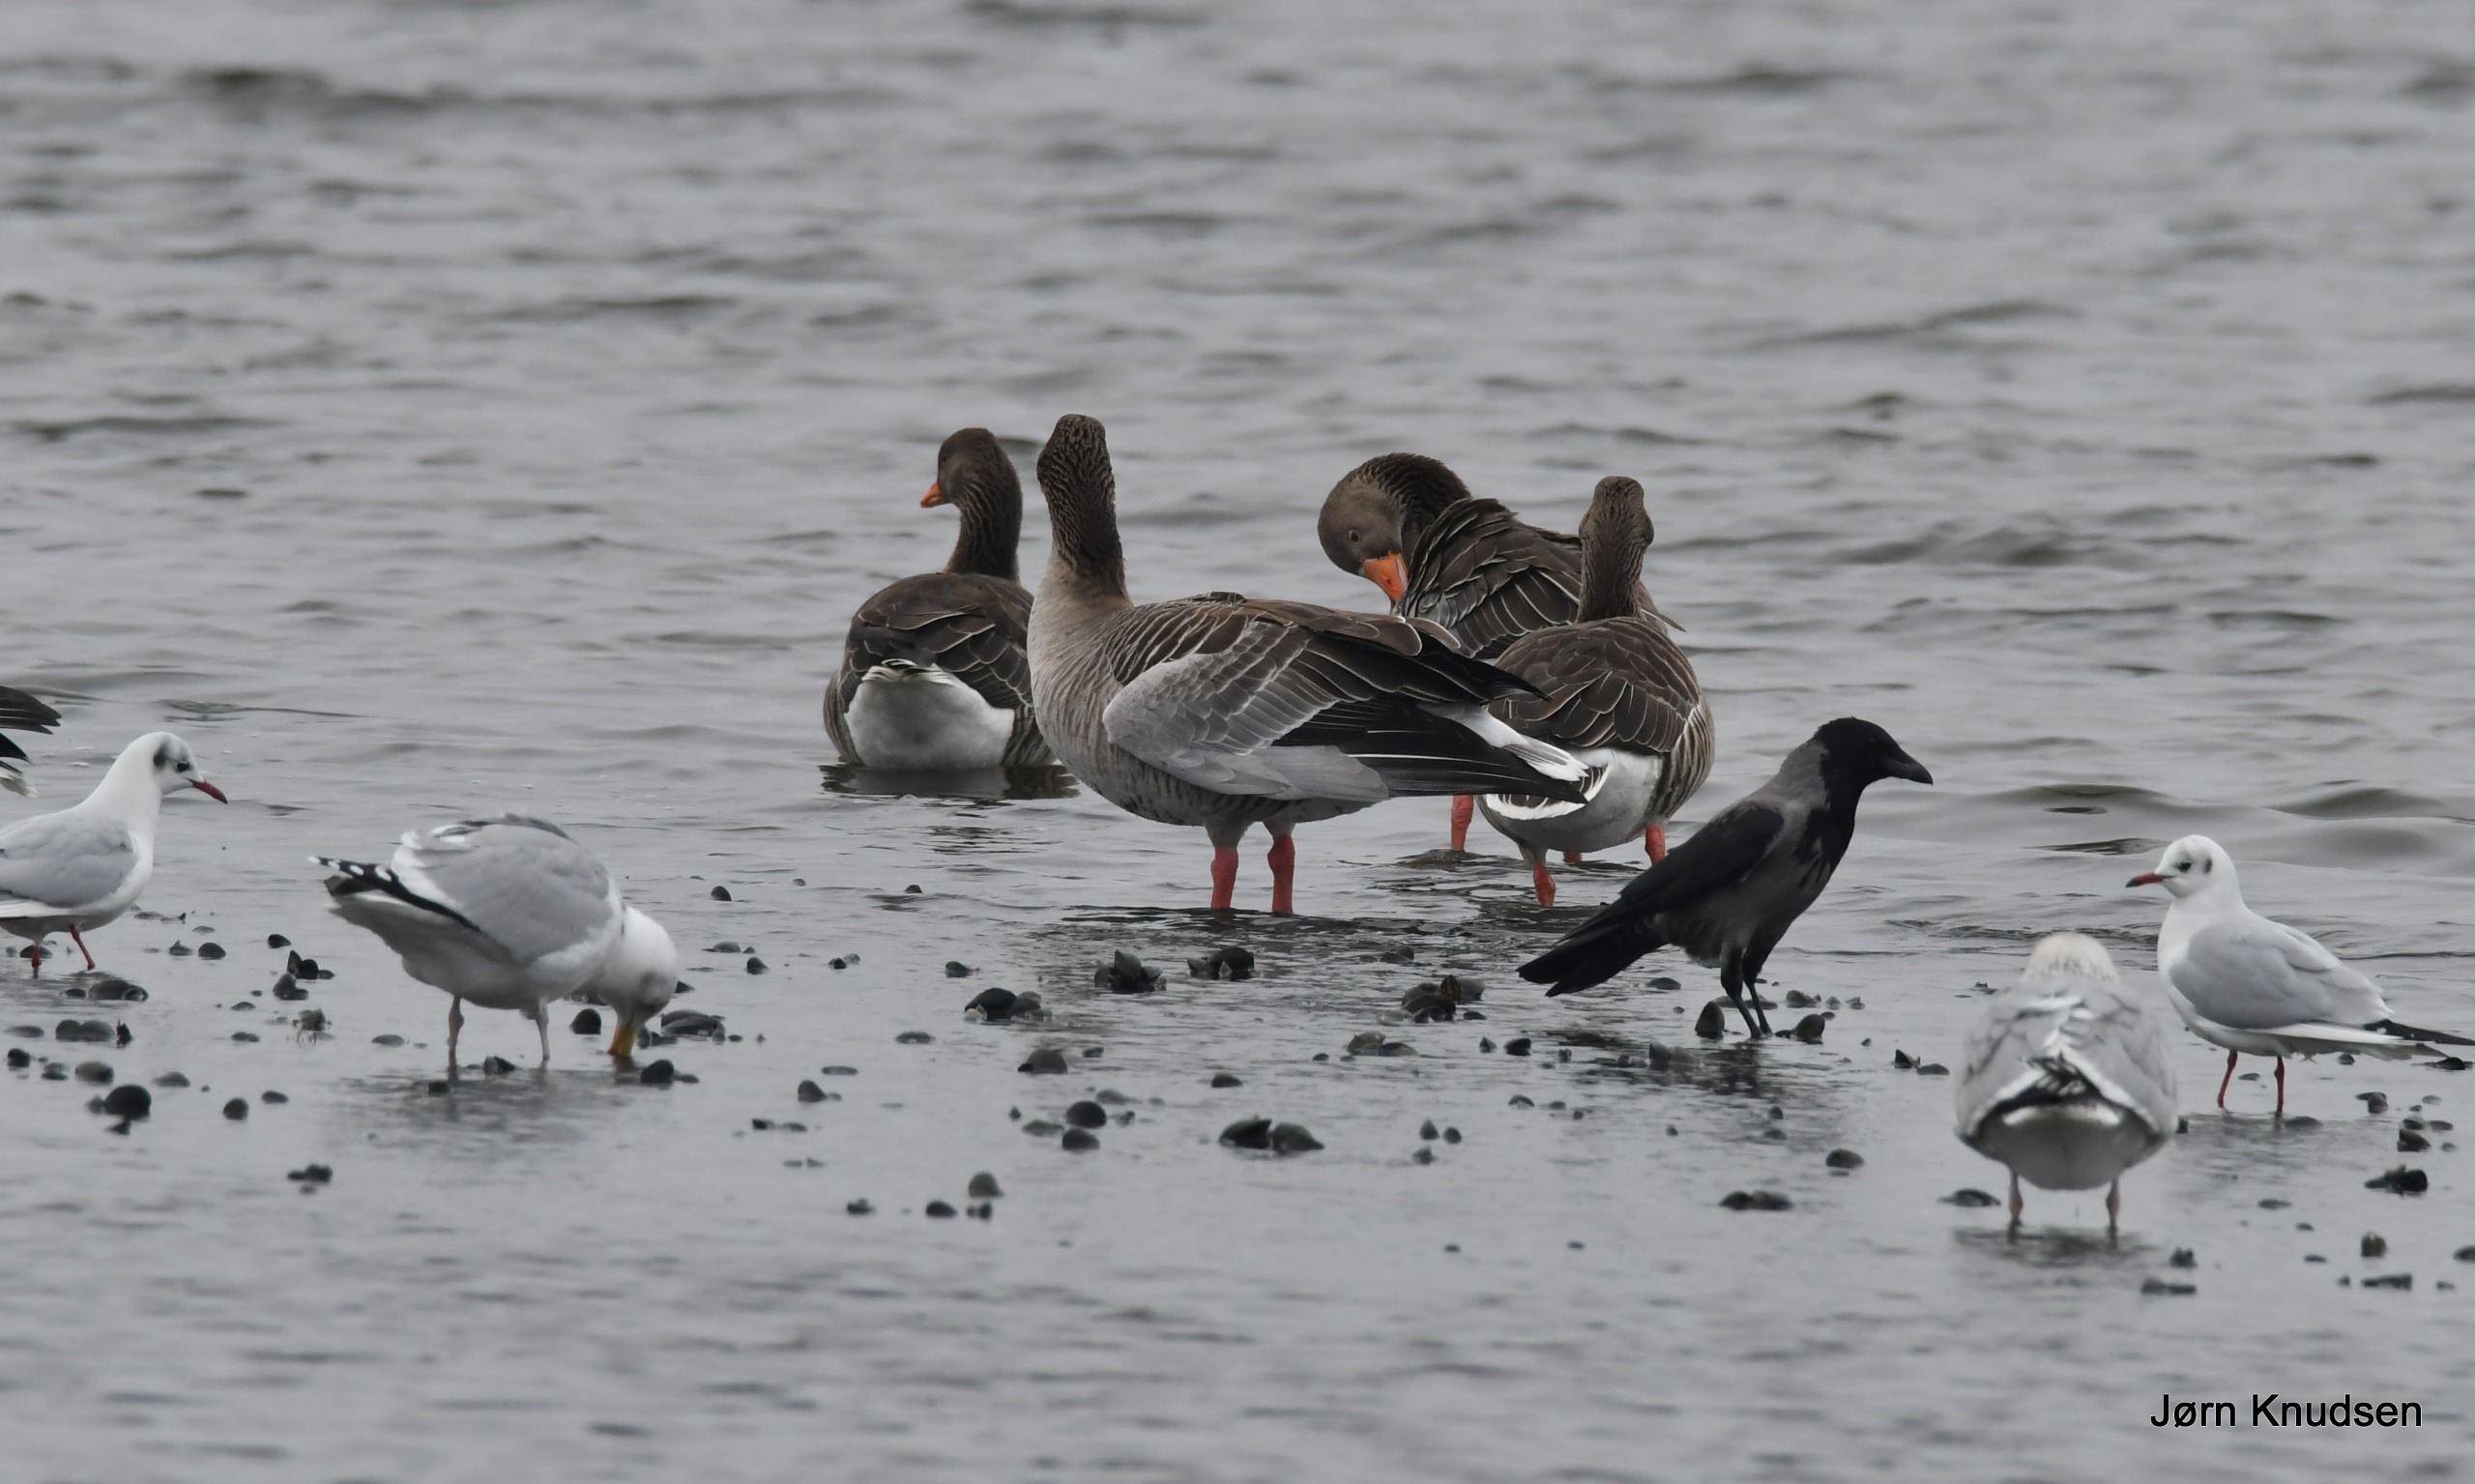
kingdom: Animalia
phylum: Chordata
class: Aves
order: Charadriiformes
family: Laridae
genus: Chroicocephalus
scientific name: Chroicocephalus ridibundus
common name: Hættemåge
